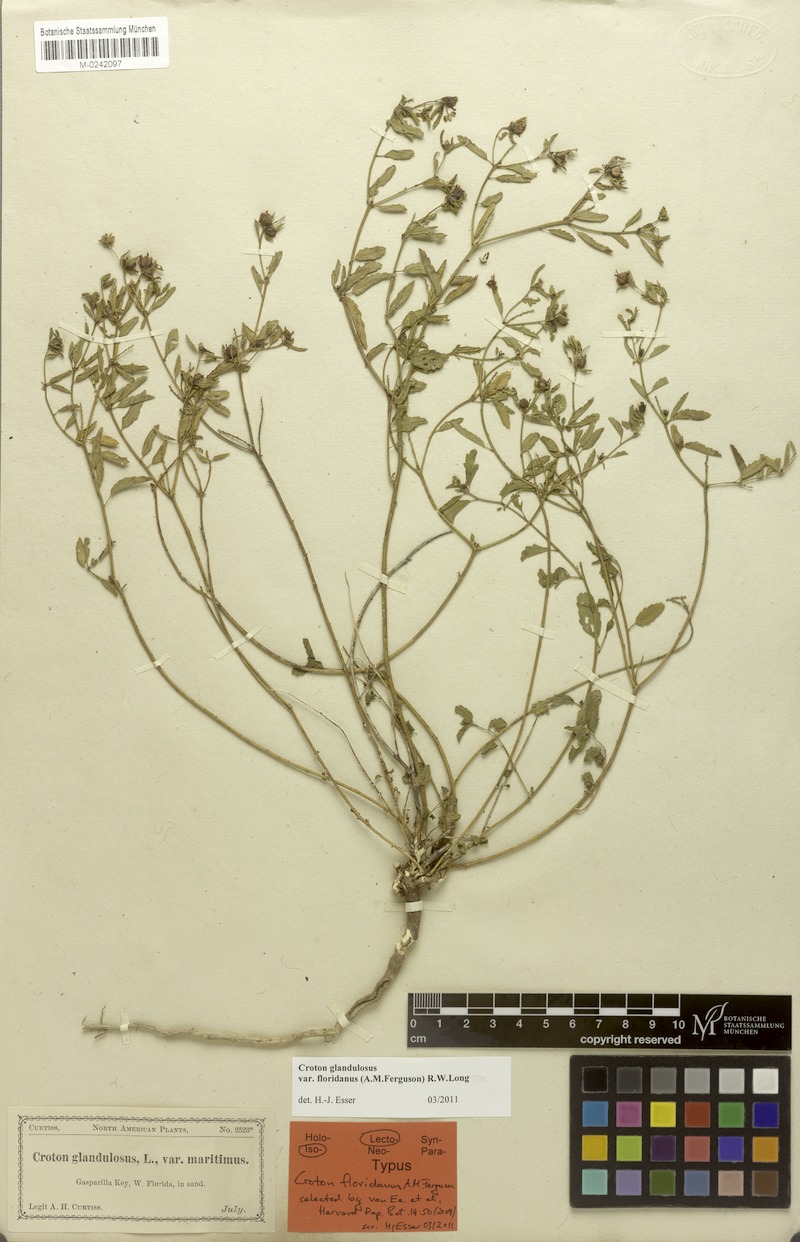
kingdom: Plantae
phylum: Tracheophyta
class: Magnoliopsida
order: Malpighiales
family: Euphorbiaceae
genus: Croton
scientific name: Croton glandulosus
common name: Tropic croton
